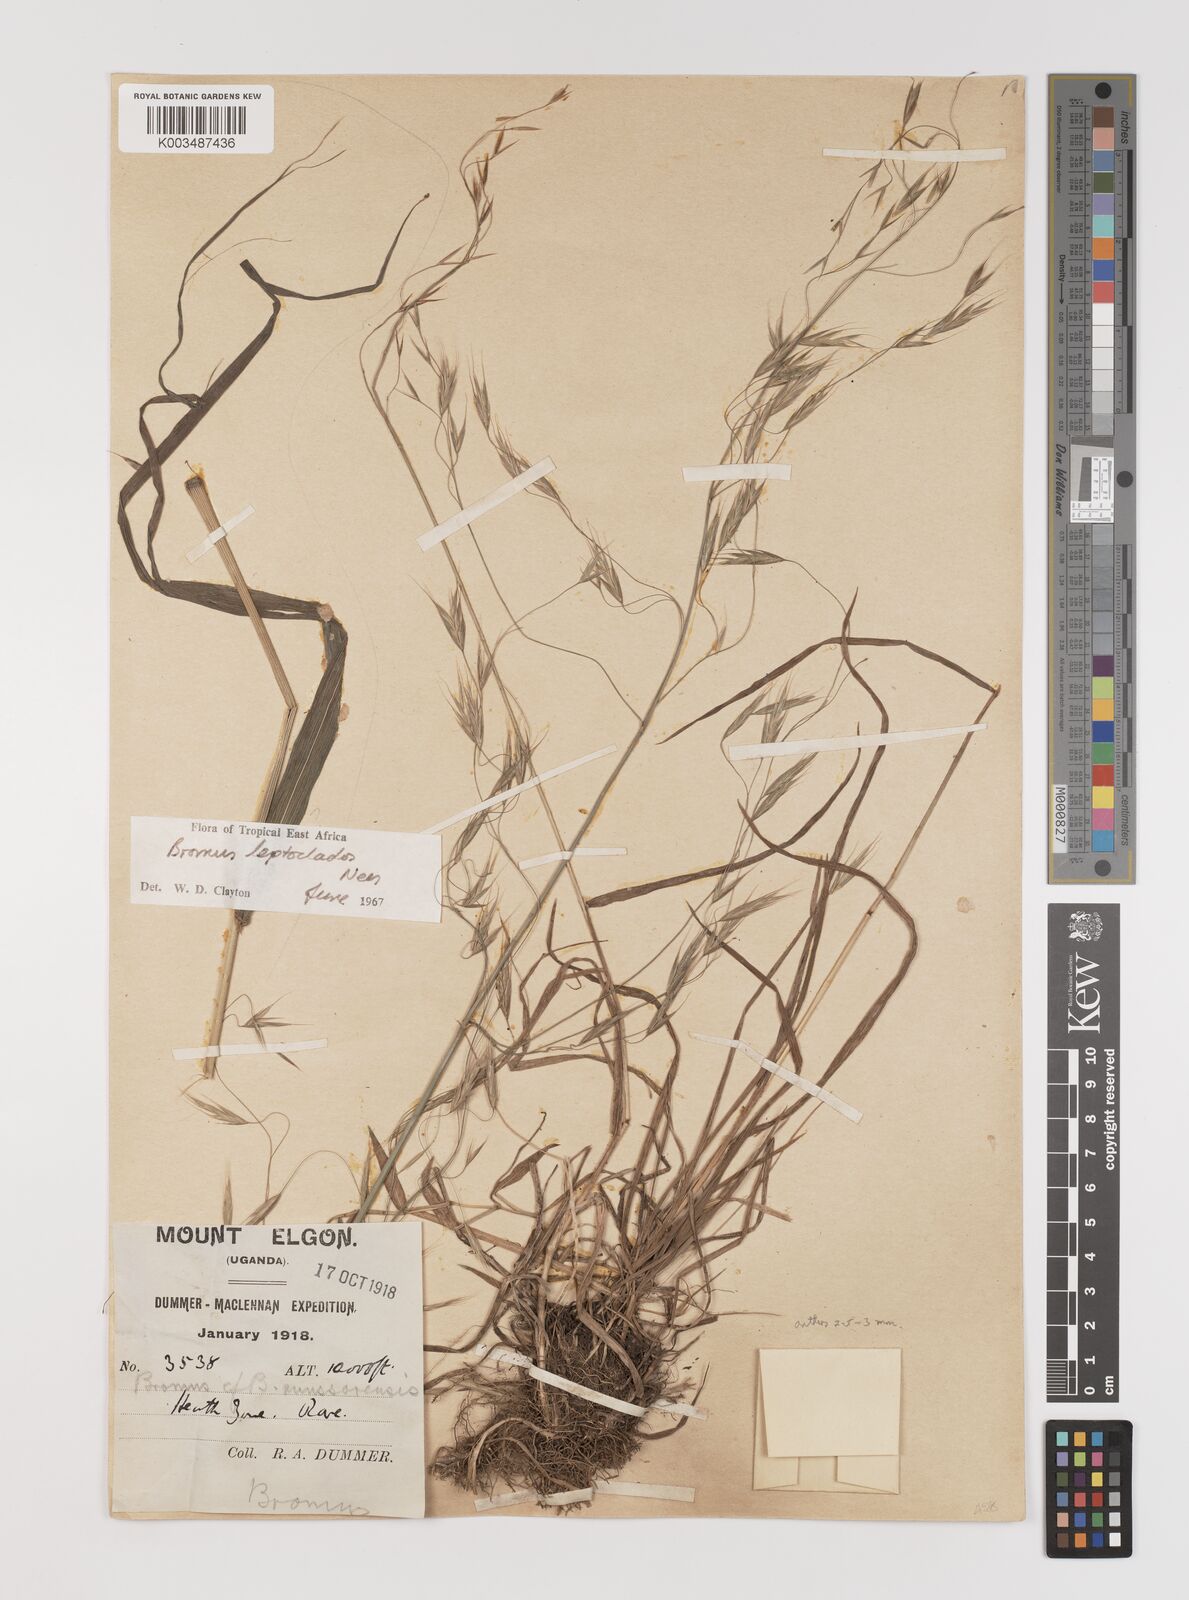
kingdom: Plantae
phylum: Tracheophyta
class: Liliopsida
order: Poales
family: Poaceae
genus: Bromus
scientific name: Bromus leptoclados
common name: Mountain bromegrass
